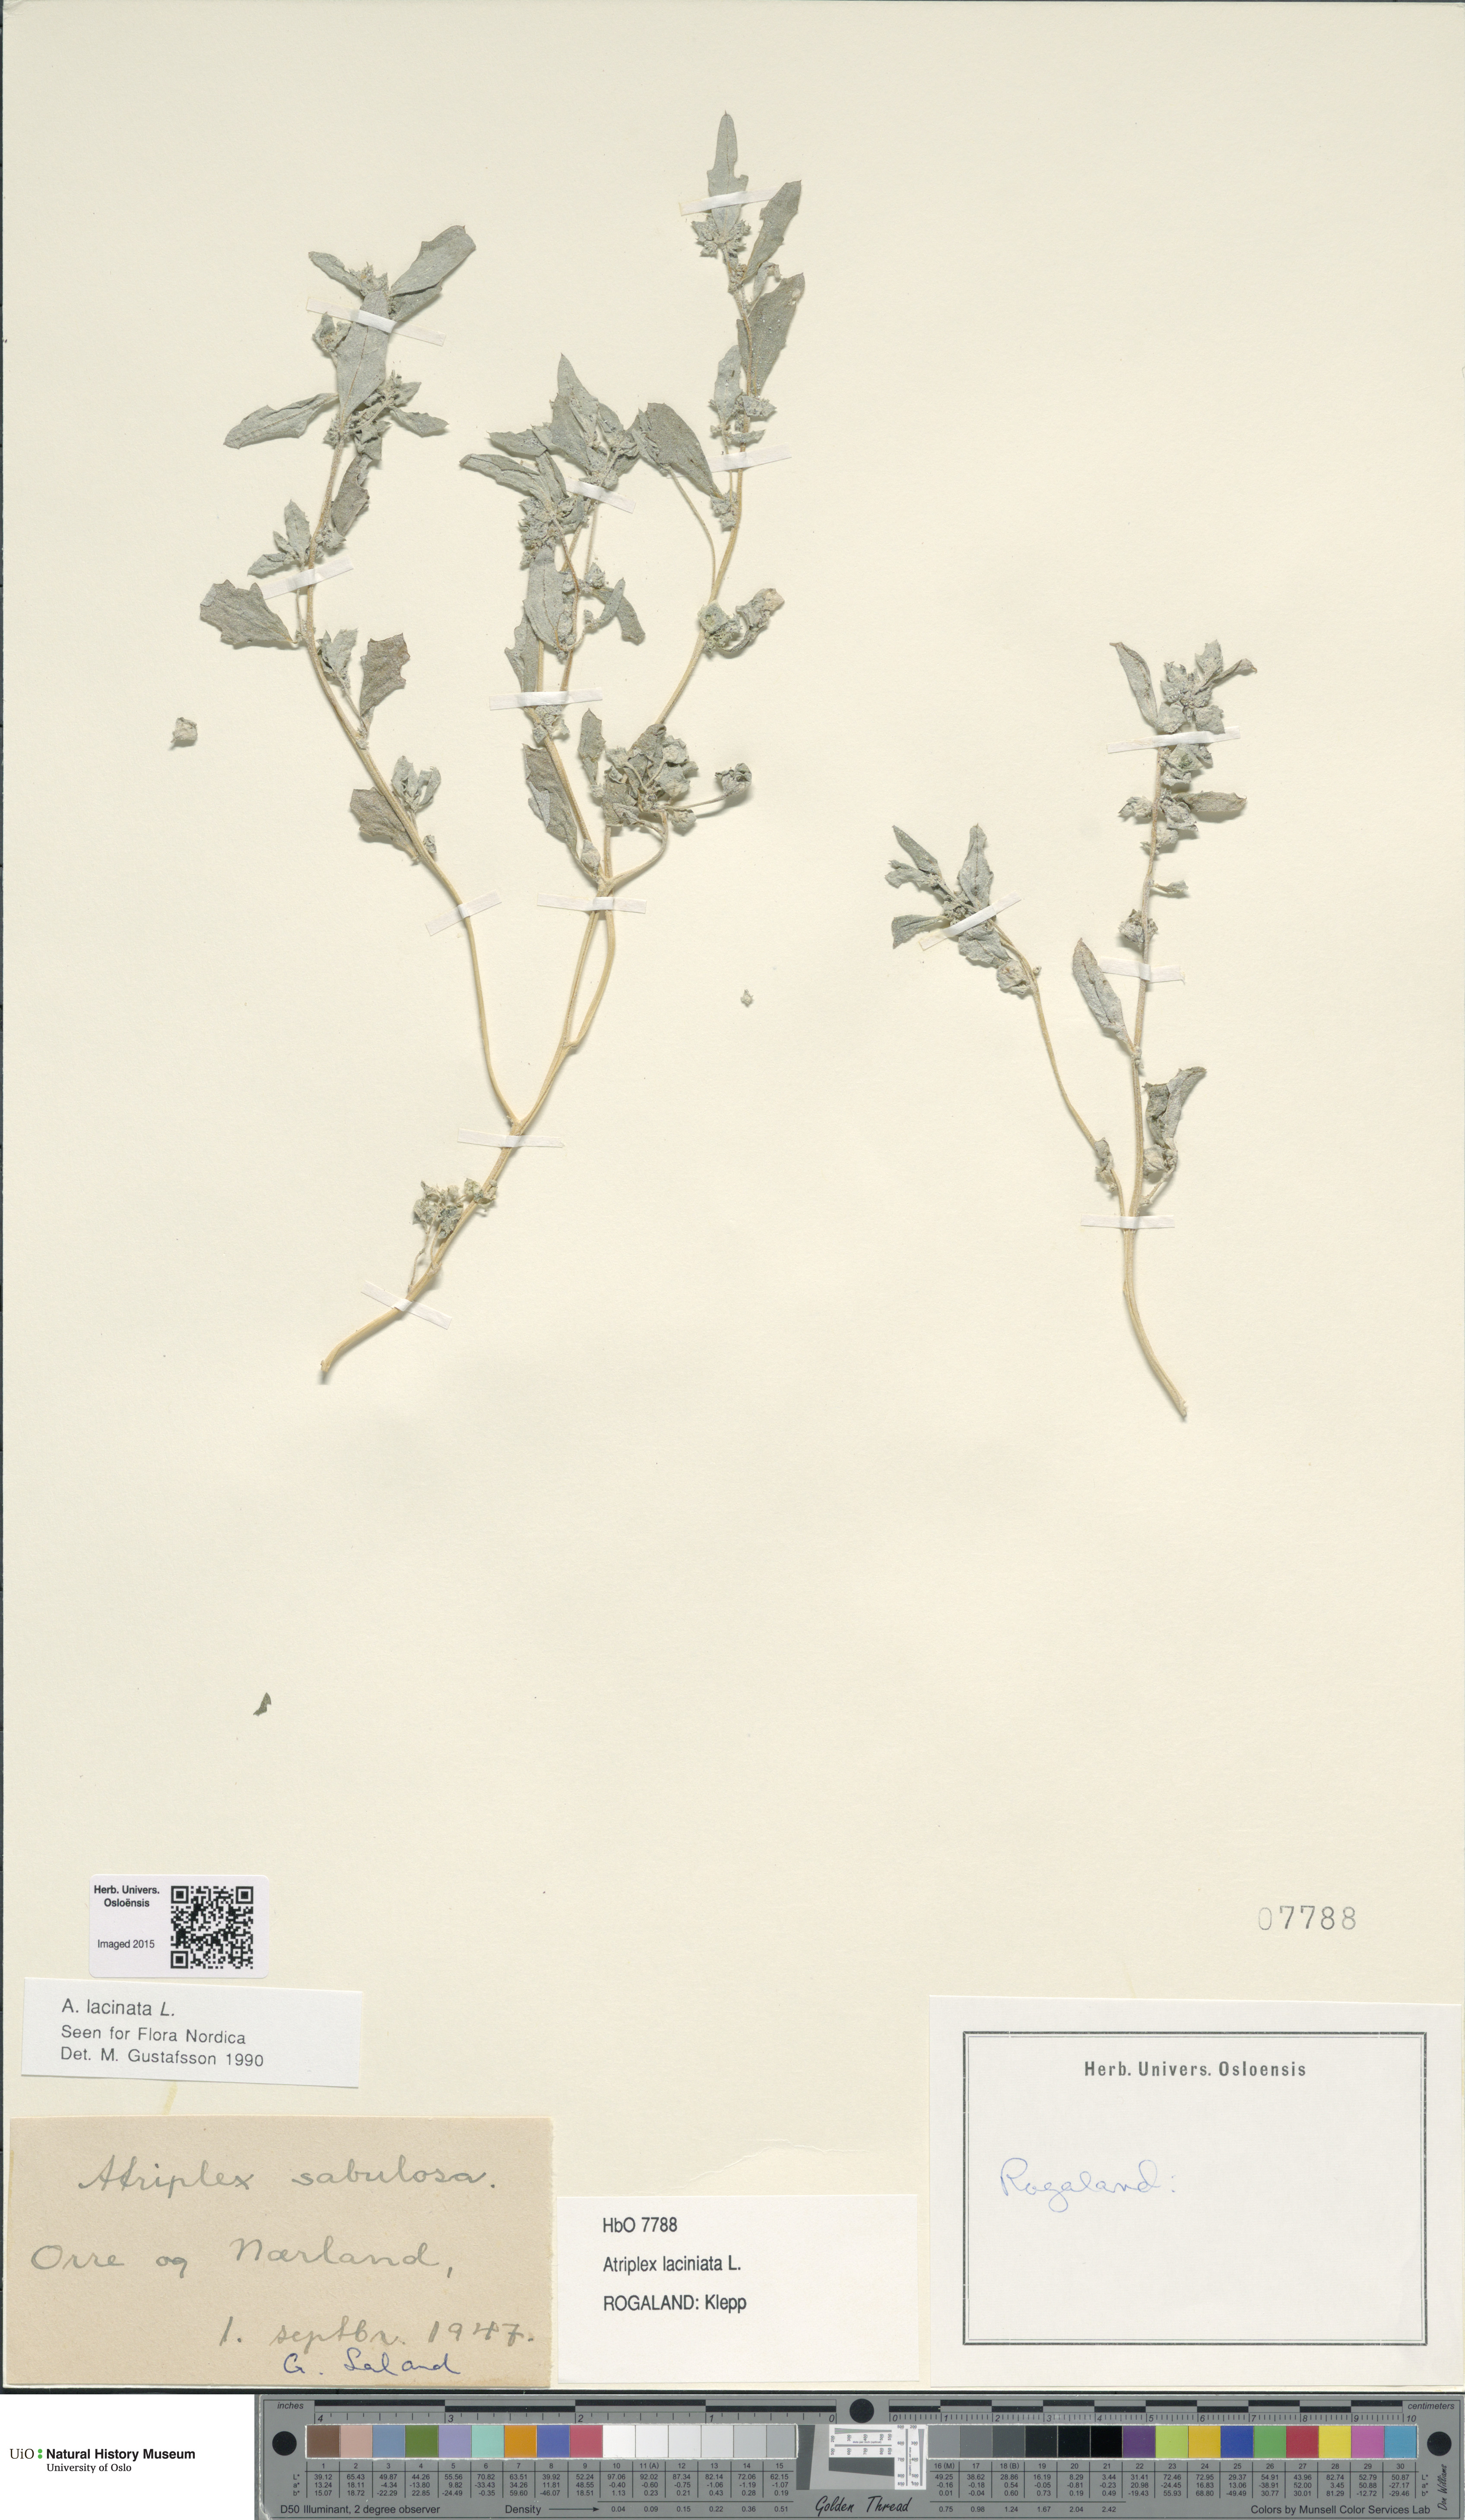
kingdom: Plantae
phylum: Tracheophyta
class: Magnoliopsida
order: Caryophyllales
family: Amaranthaceae
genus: Atriplex
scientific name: Atriplex laciniata
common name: Frosted orache
